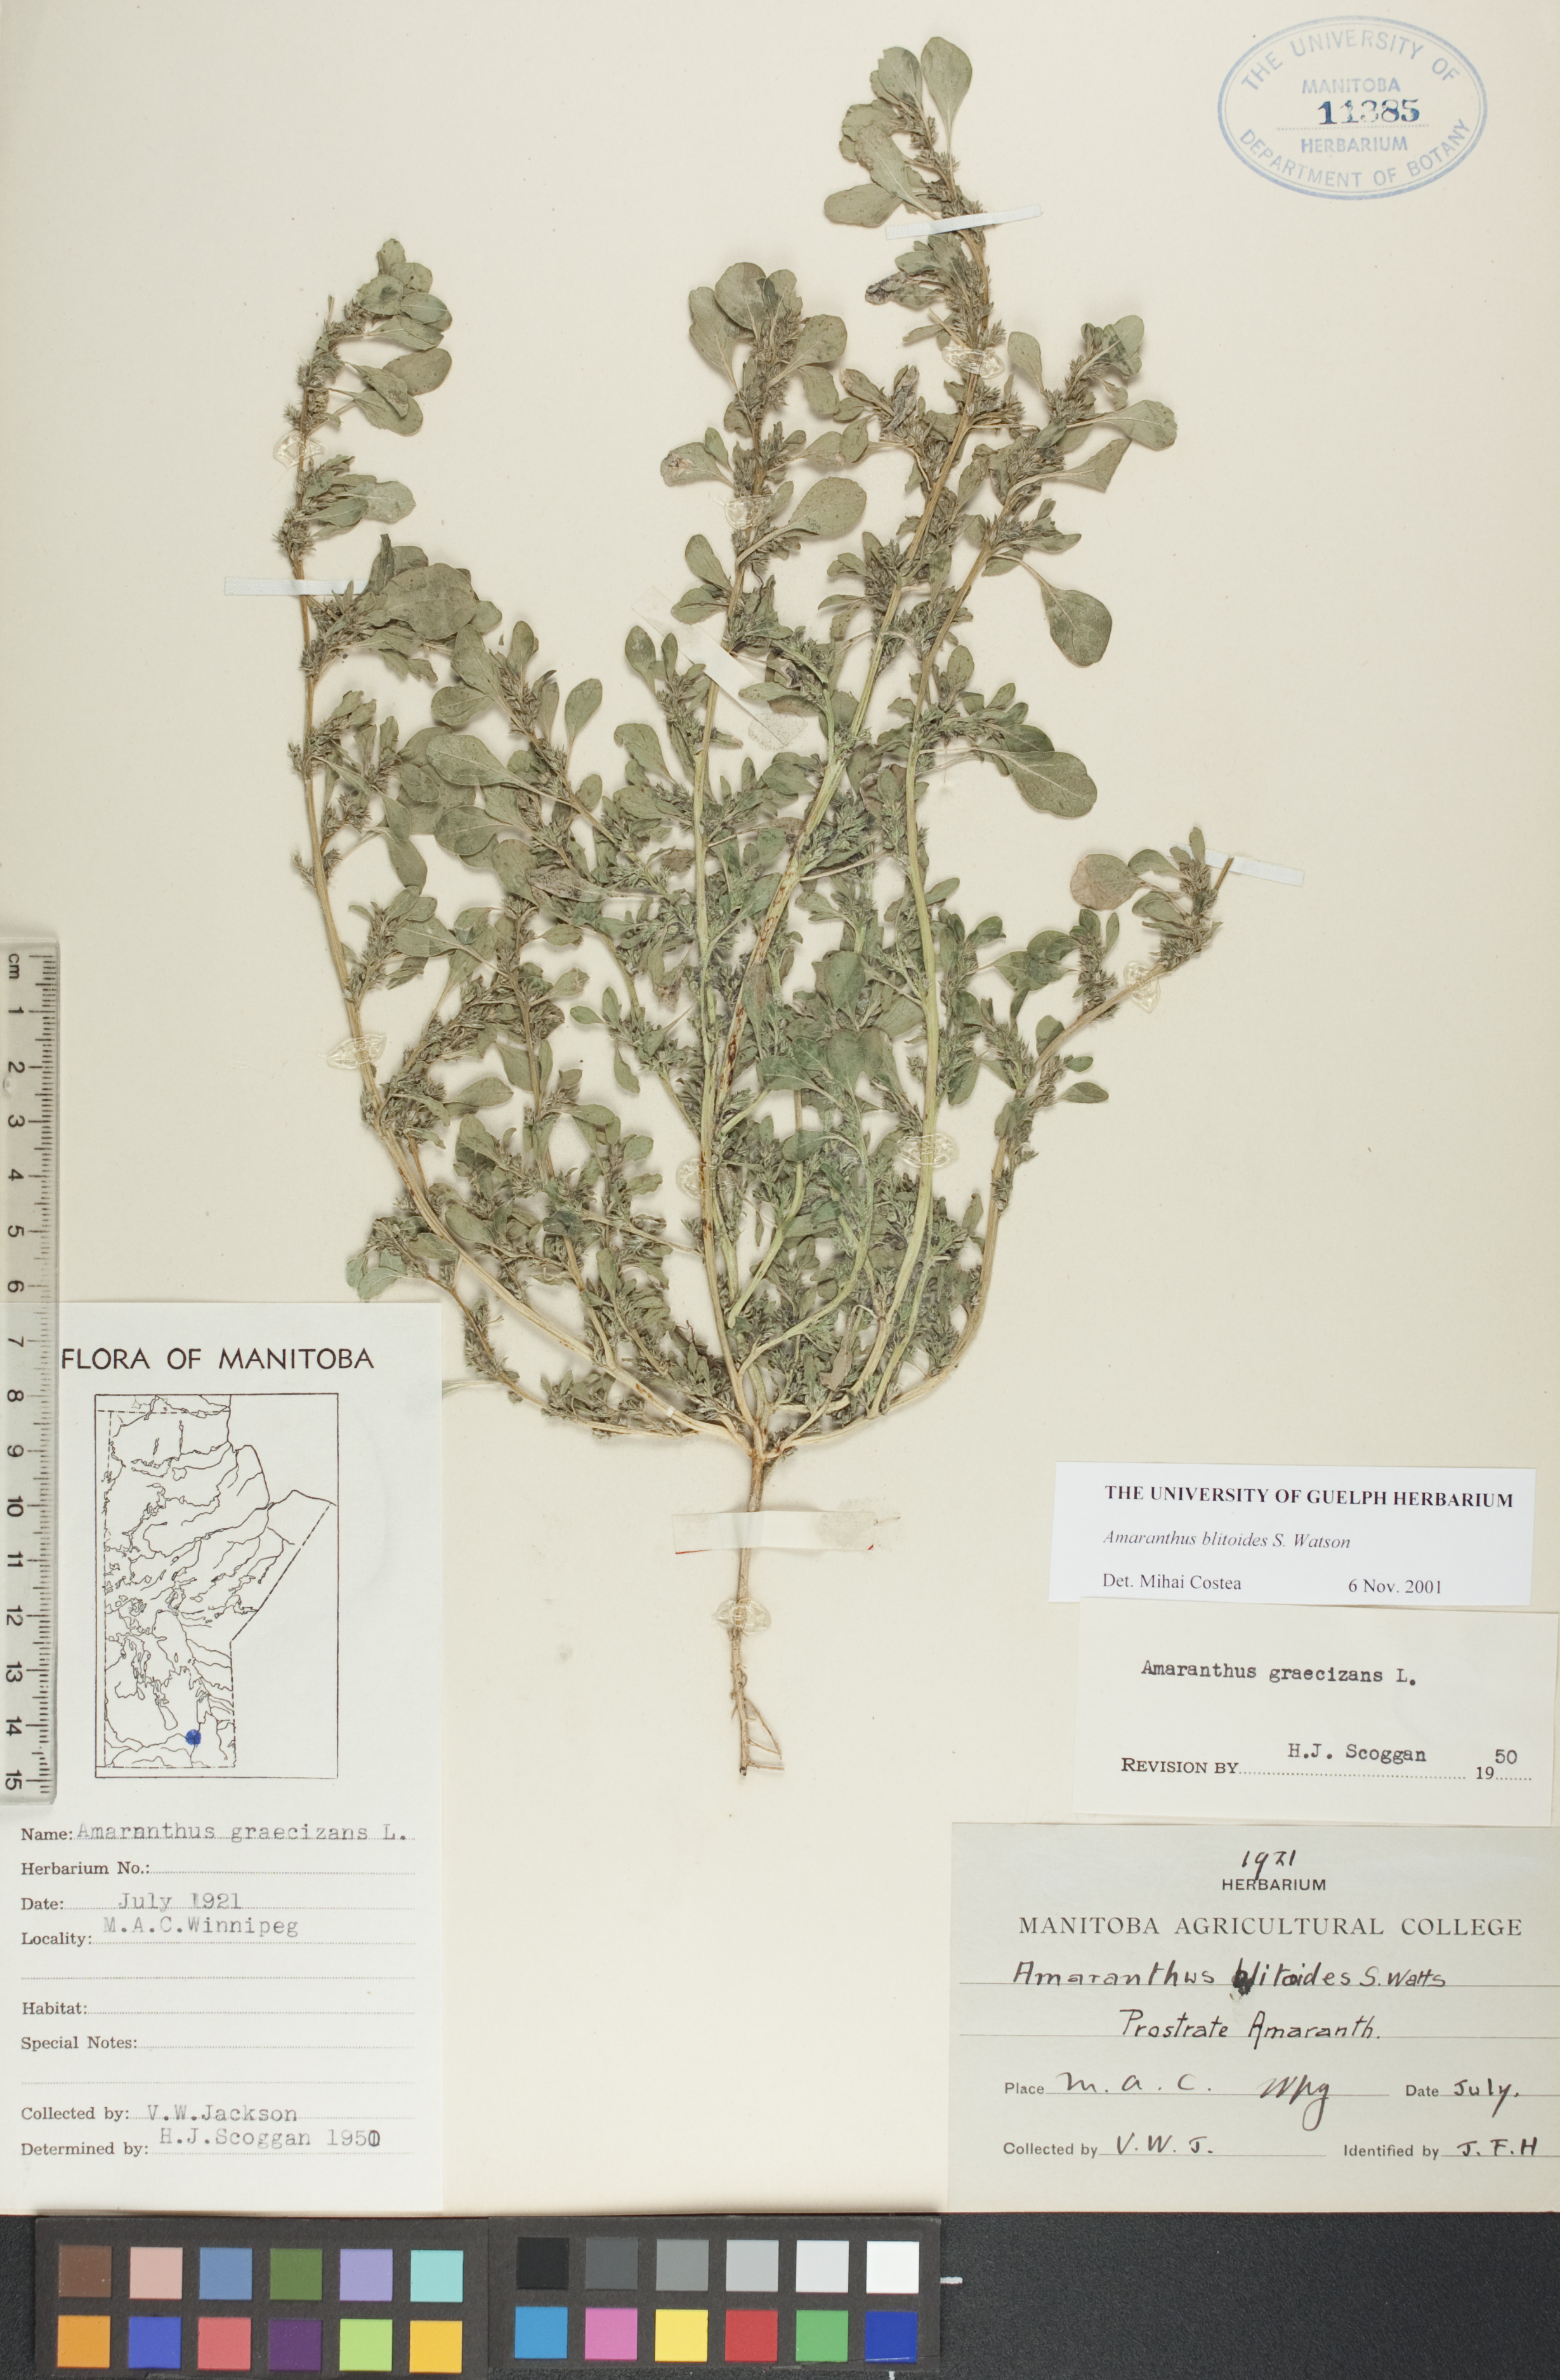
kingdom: Plantae
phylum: Tracheophyta
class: Magnoliopsida
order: Caryophyllales
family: Amaranthaceae
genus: Amaranthus
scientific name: Amaranthus blitoides
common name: Prostrate pigweed
